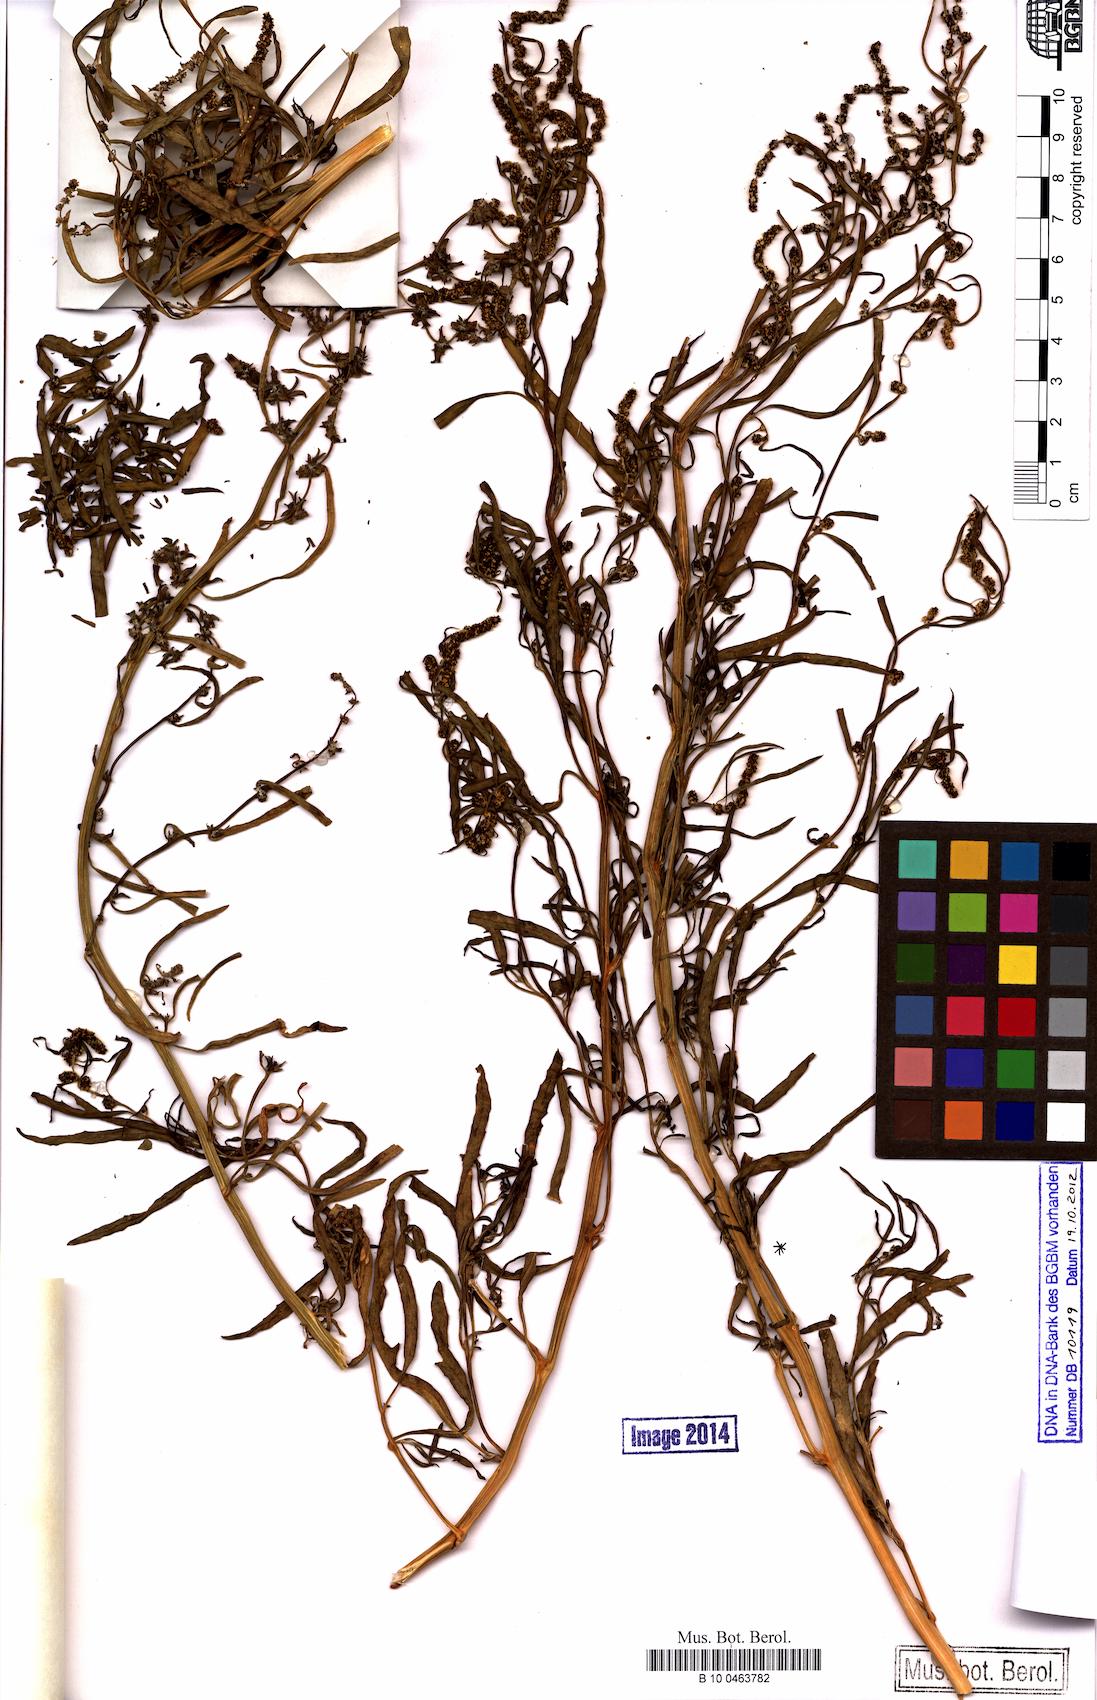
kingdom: Plantae
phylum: Tracheophyta
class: Magnoliopsida
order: Caryophyllales
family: Amaranthaceae
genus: Atriplex
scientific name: Atriplex littoralis
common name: Grass-leaved orache
